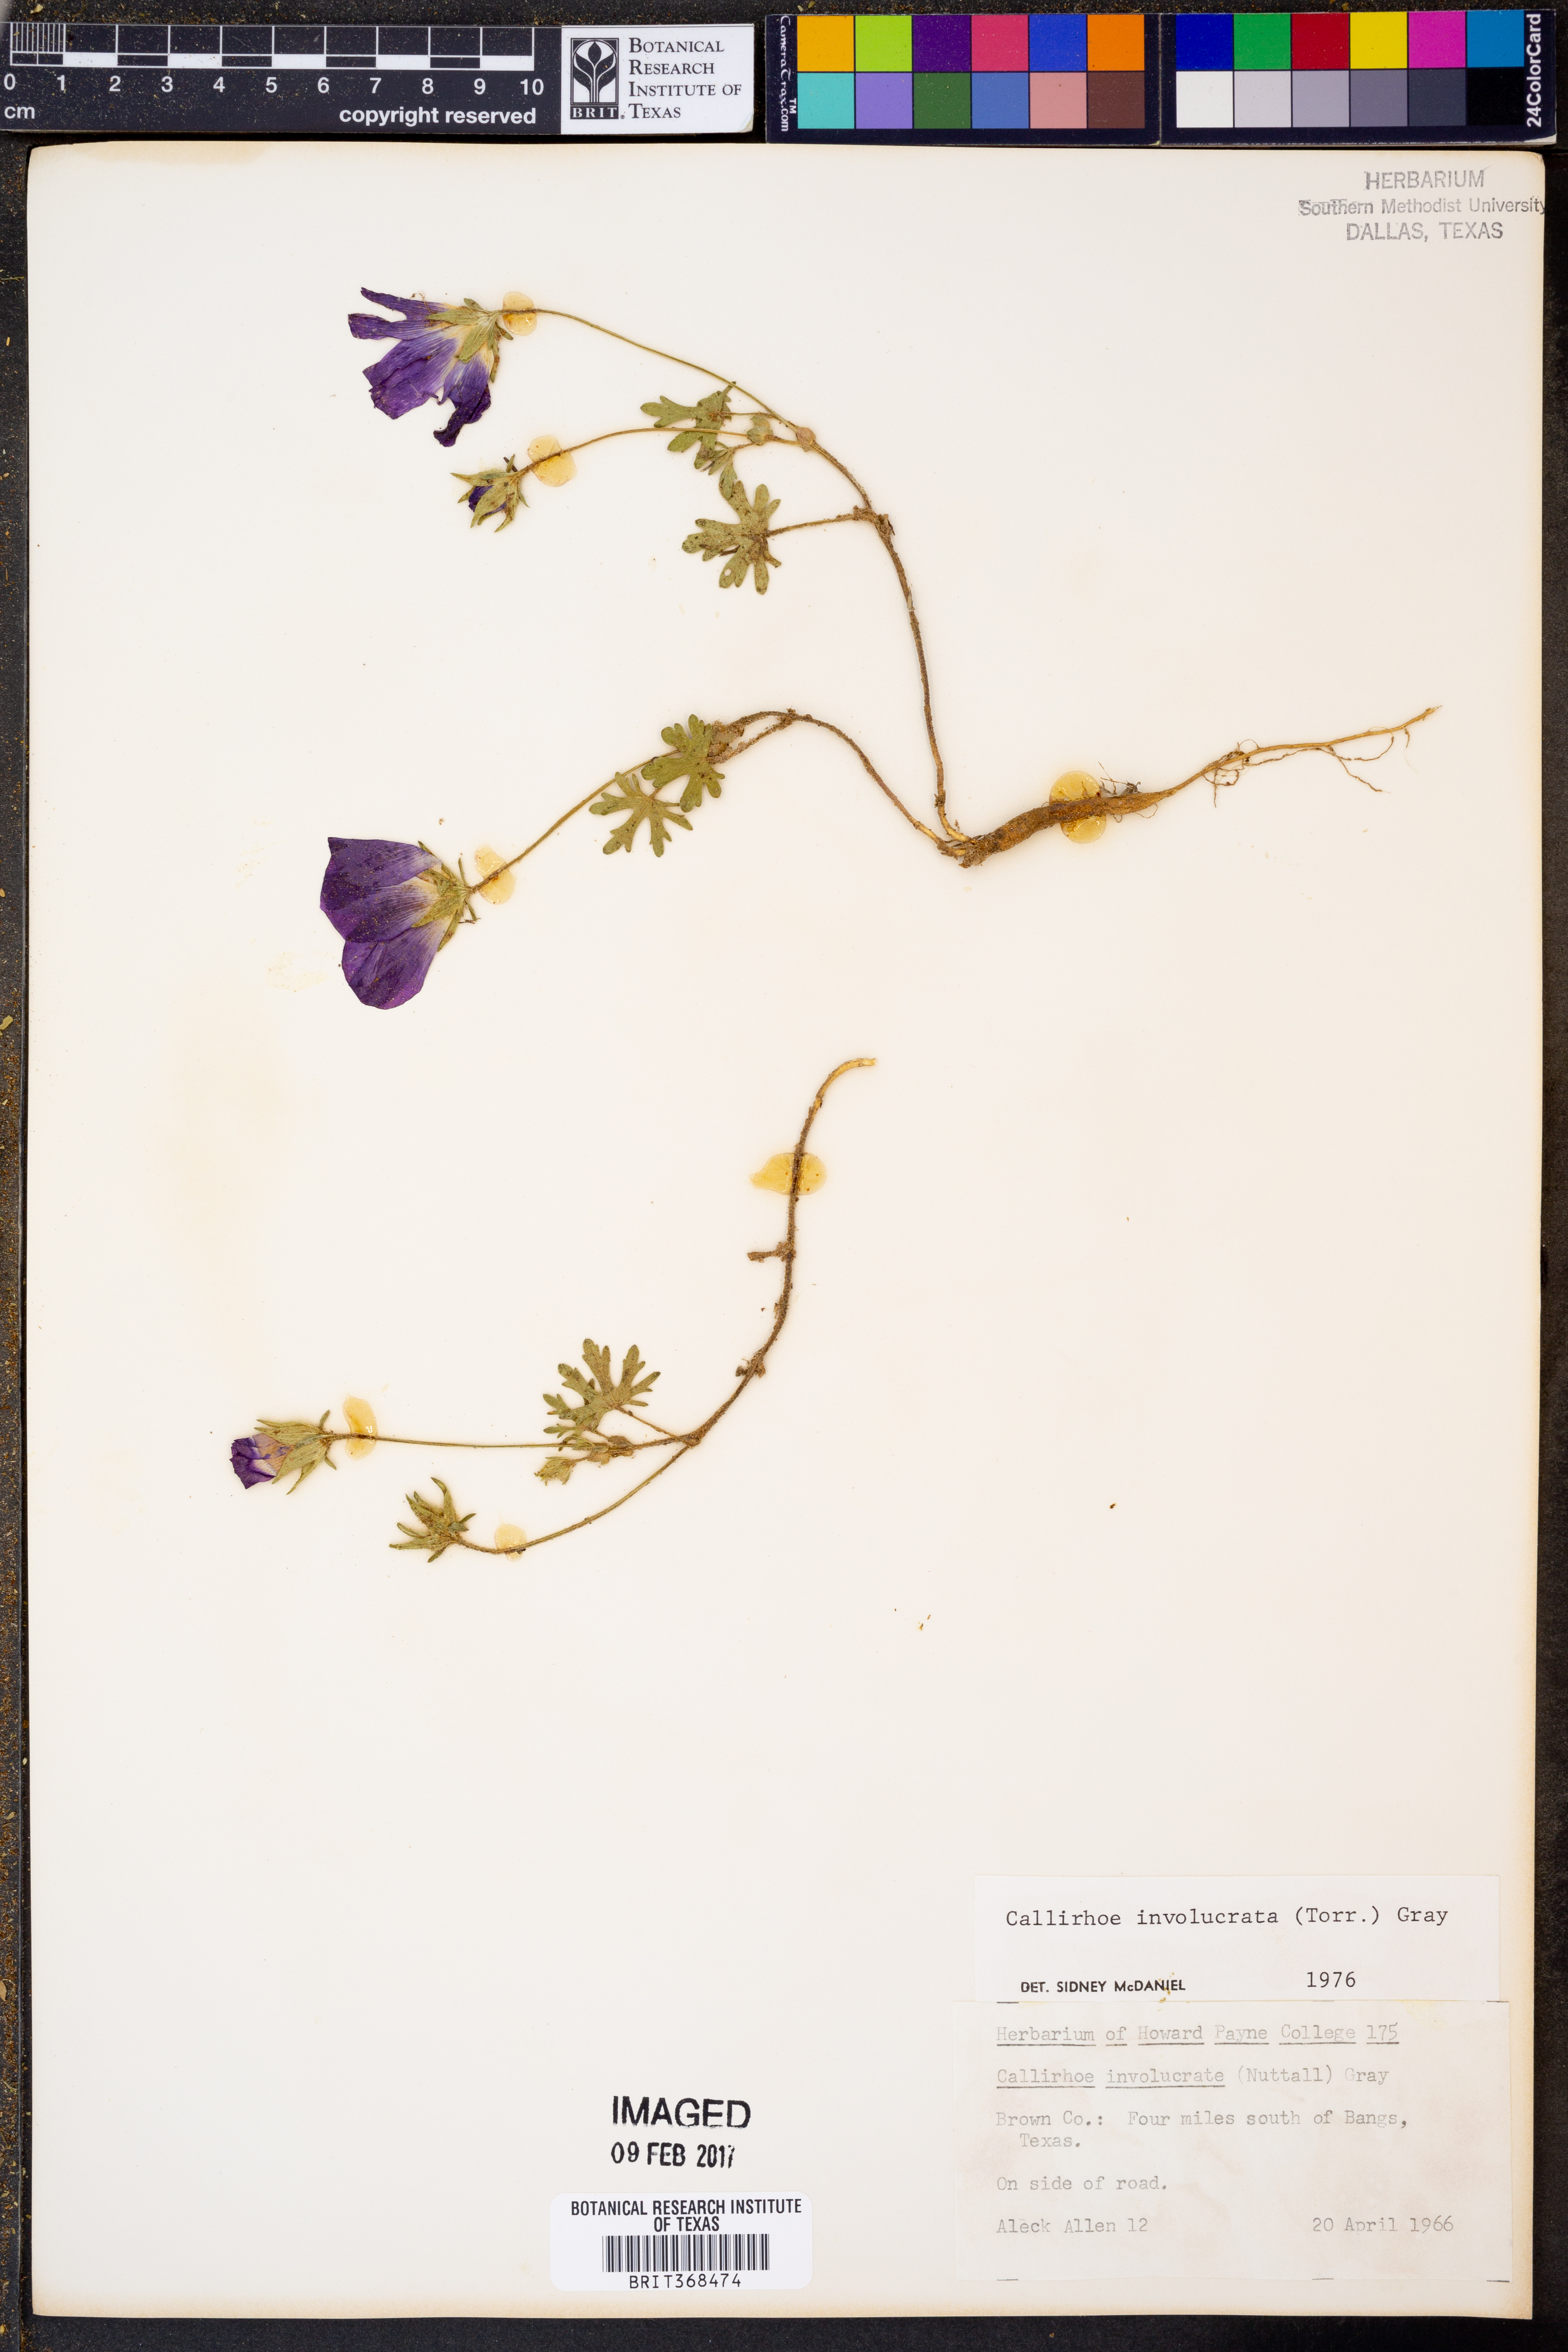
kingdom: Plantae
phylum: Tracheophyta
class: Magnoliopsida
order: Malvales
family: Malvaceae
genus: Callirhoe
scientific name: Callirhoe involucrata
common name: Purple poppy-mallow
